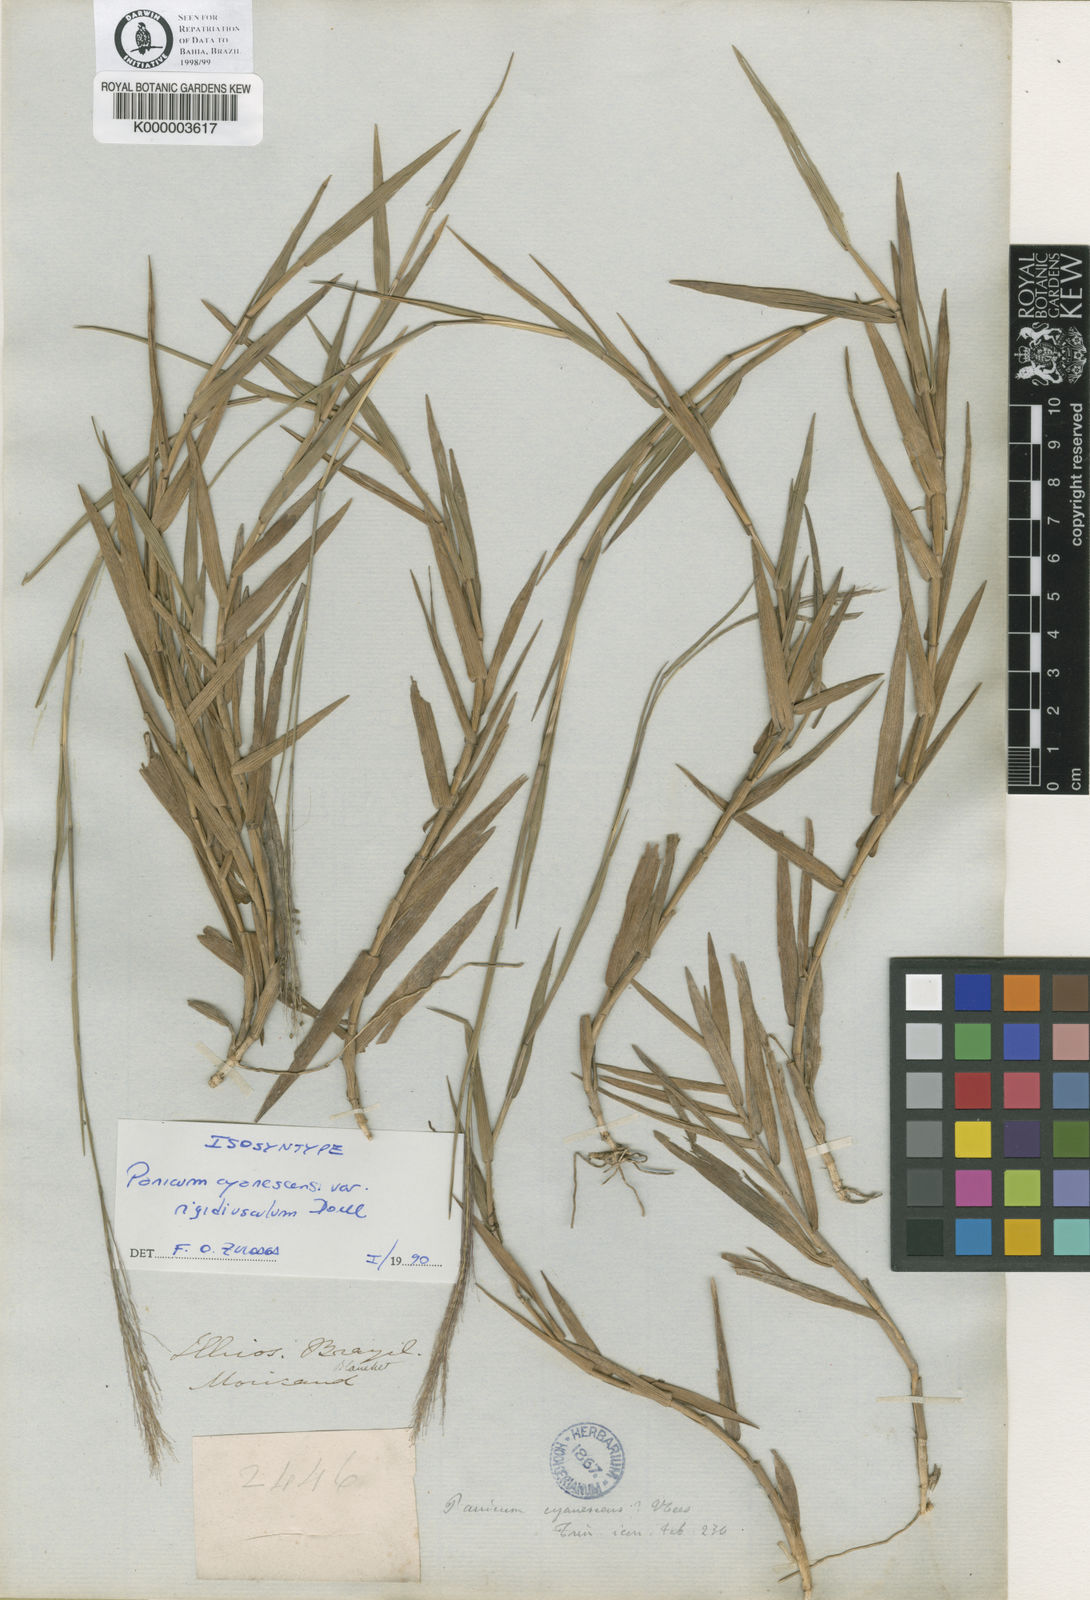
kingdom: Plantae
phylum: Tracheophyta
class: Liliopsida
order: Poales
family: Poaceae
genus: Trichanthecium
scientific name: Trichanthecium cyanescens
